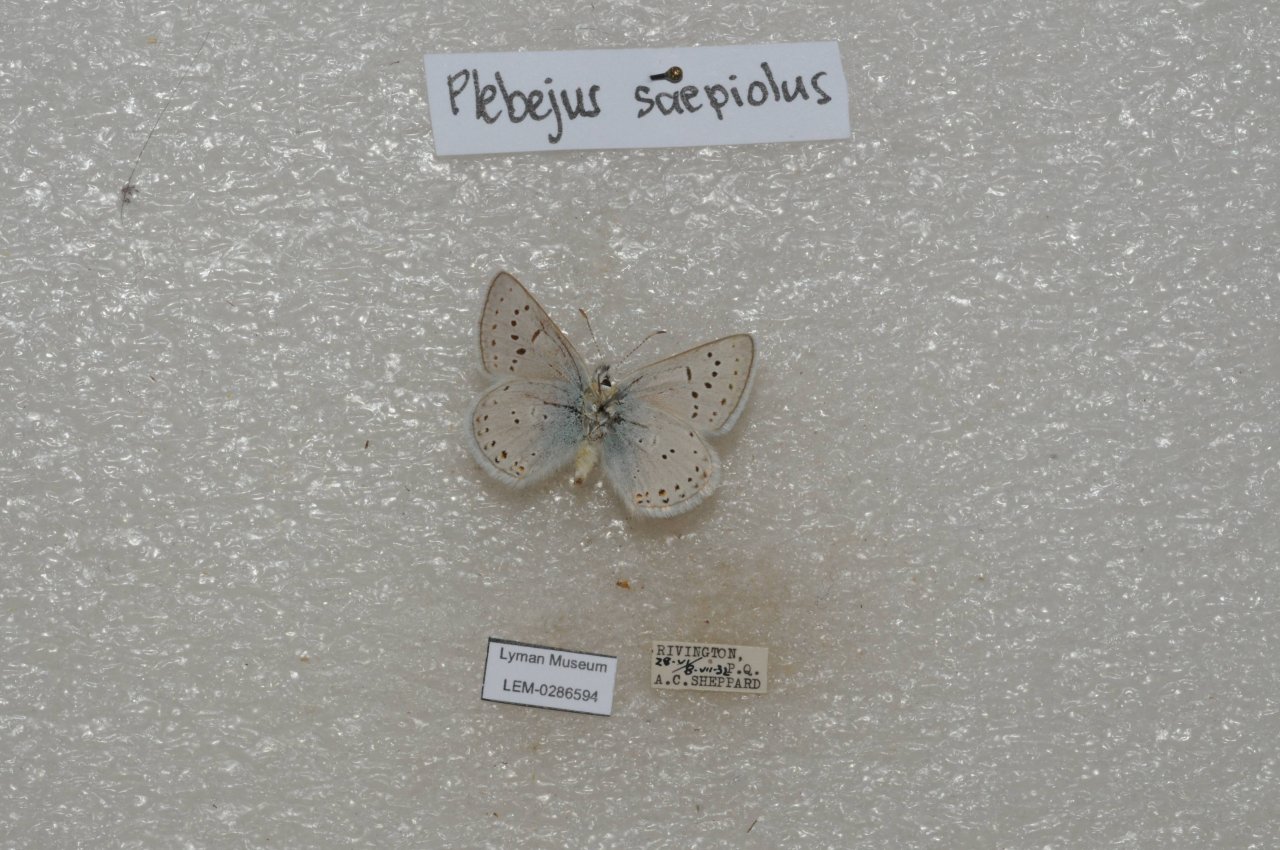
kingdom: Animalia
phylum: Arthropoda
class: Insecta
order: Lepidoptera
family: Lycaenidae
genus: Plebejus
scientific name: Plebejus saepiolus
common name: Greenish Blue
